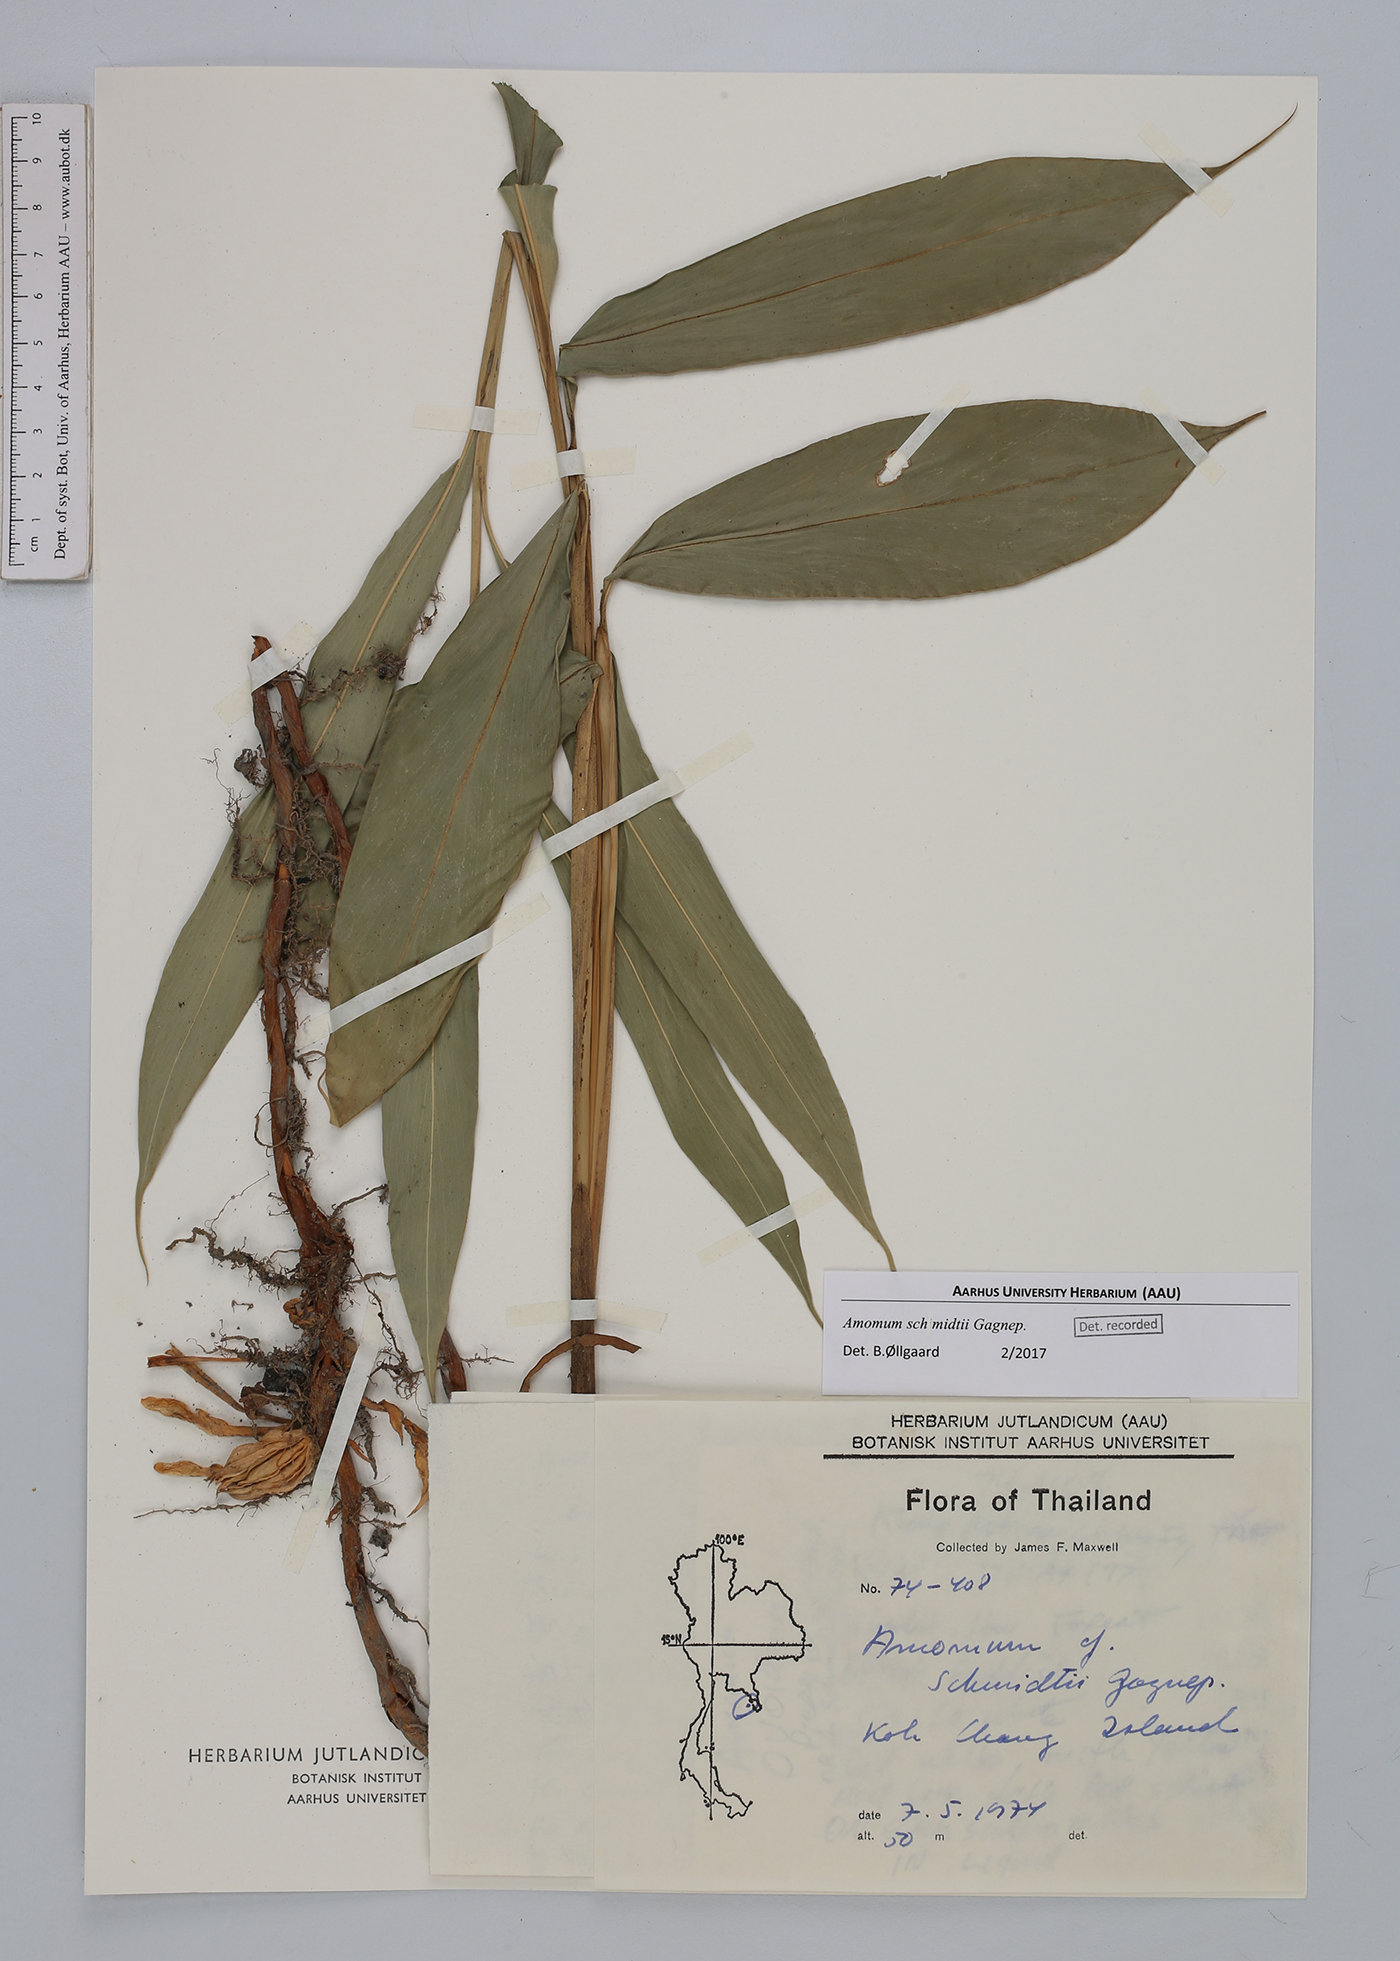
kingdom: Plantae
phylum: Tracheophyta
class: Liliopsida
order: Zingiberales
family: Zingiberaceae
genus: Wurfbainia
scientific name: Wurfbainia schmidtii
